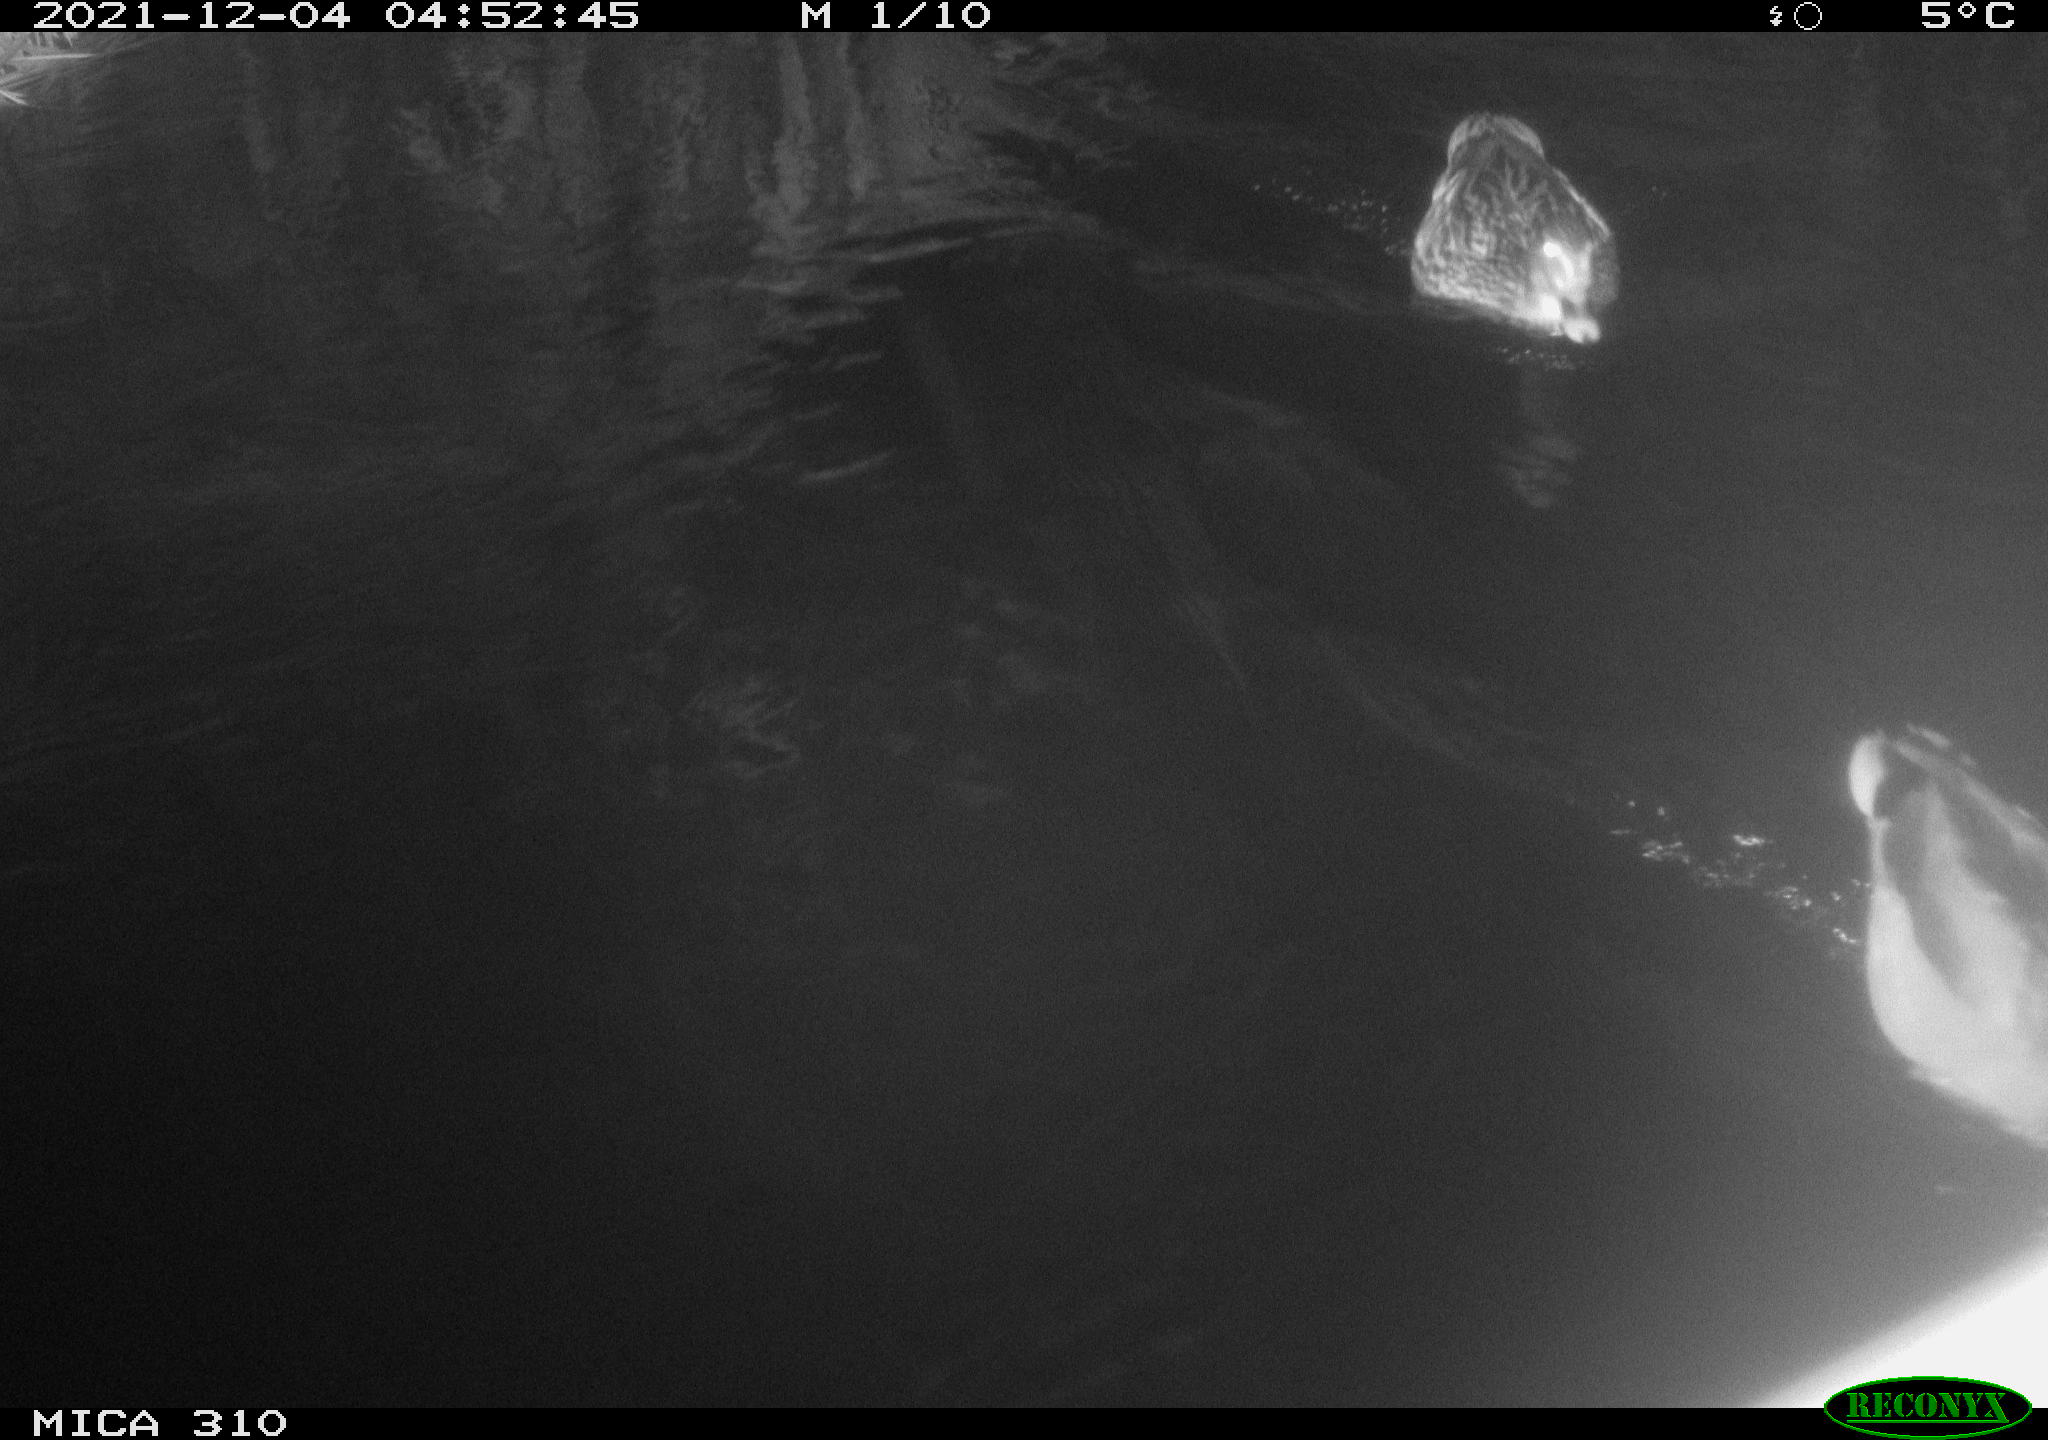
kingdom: Animalia
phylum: Chordata
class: Aves
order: Anseriformes
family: Anatidae
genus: Anas
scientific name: Anas platyrhynchos
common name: Mallard
